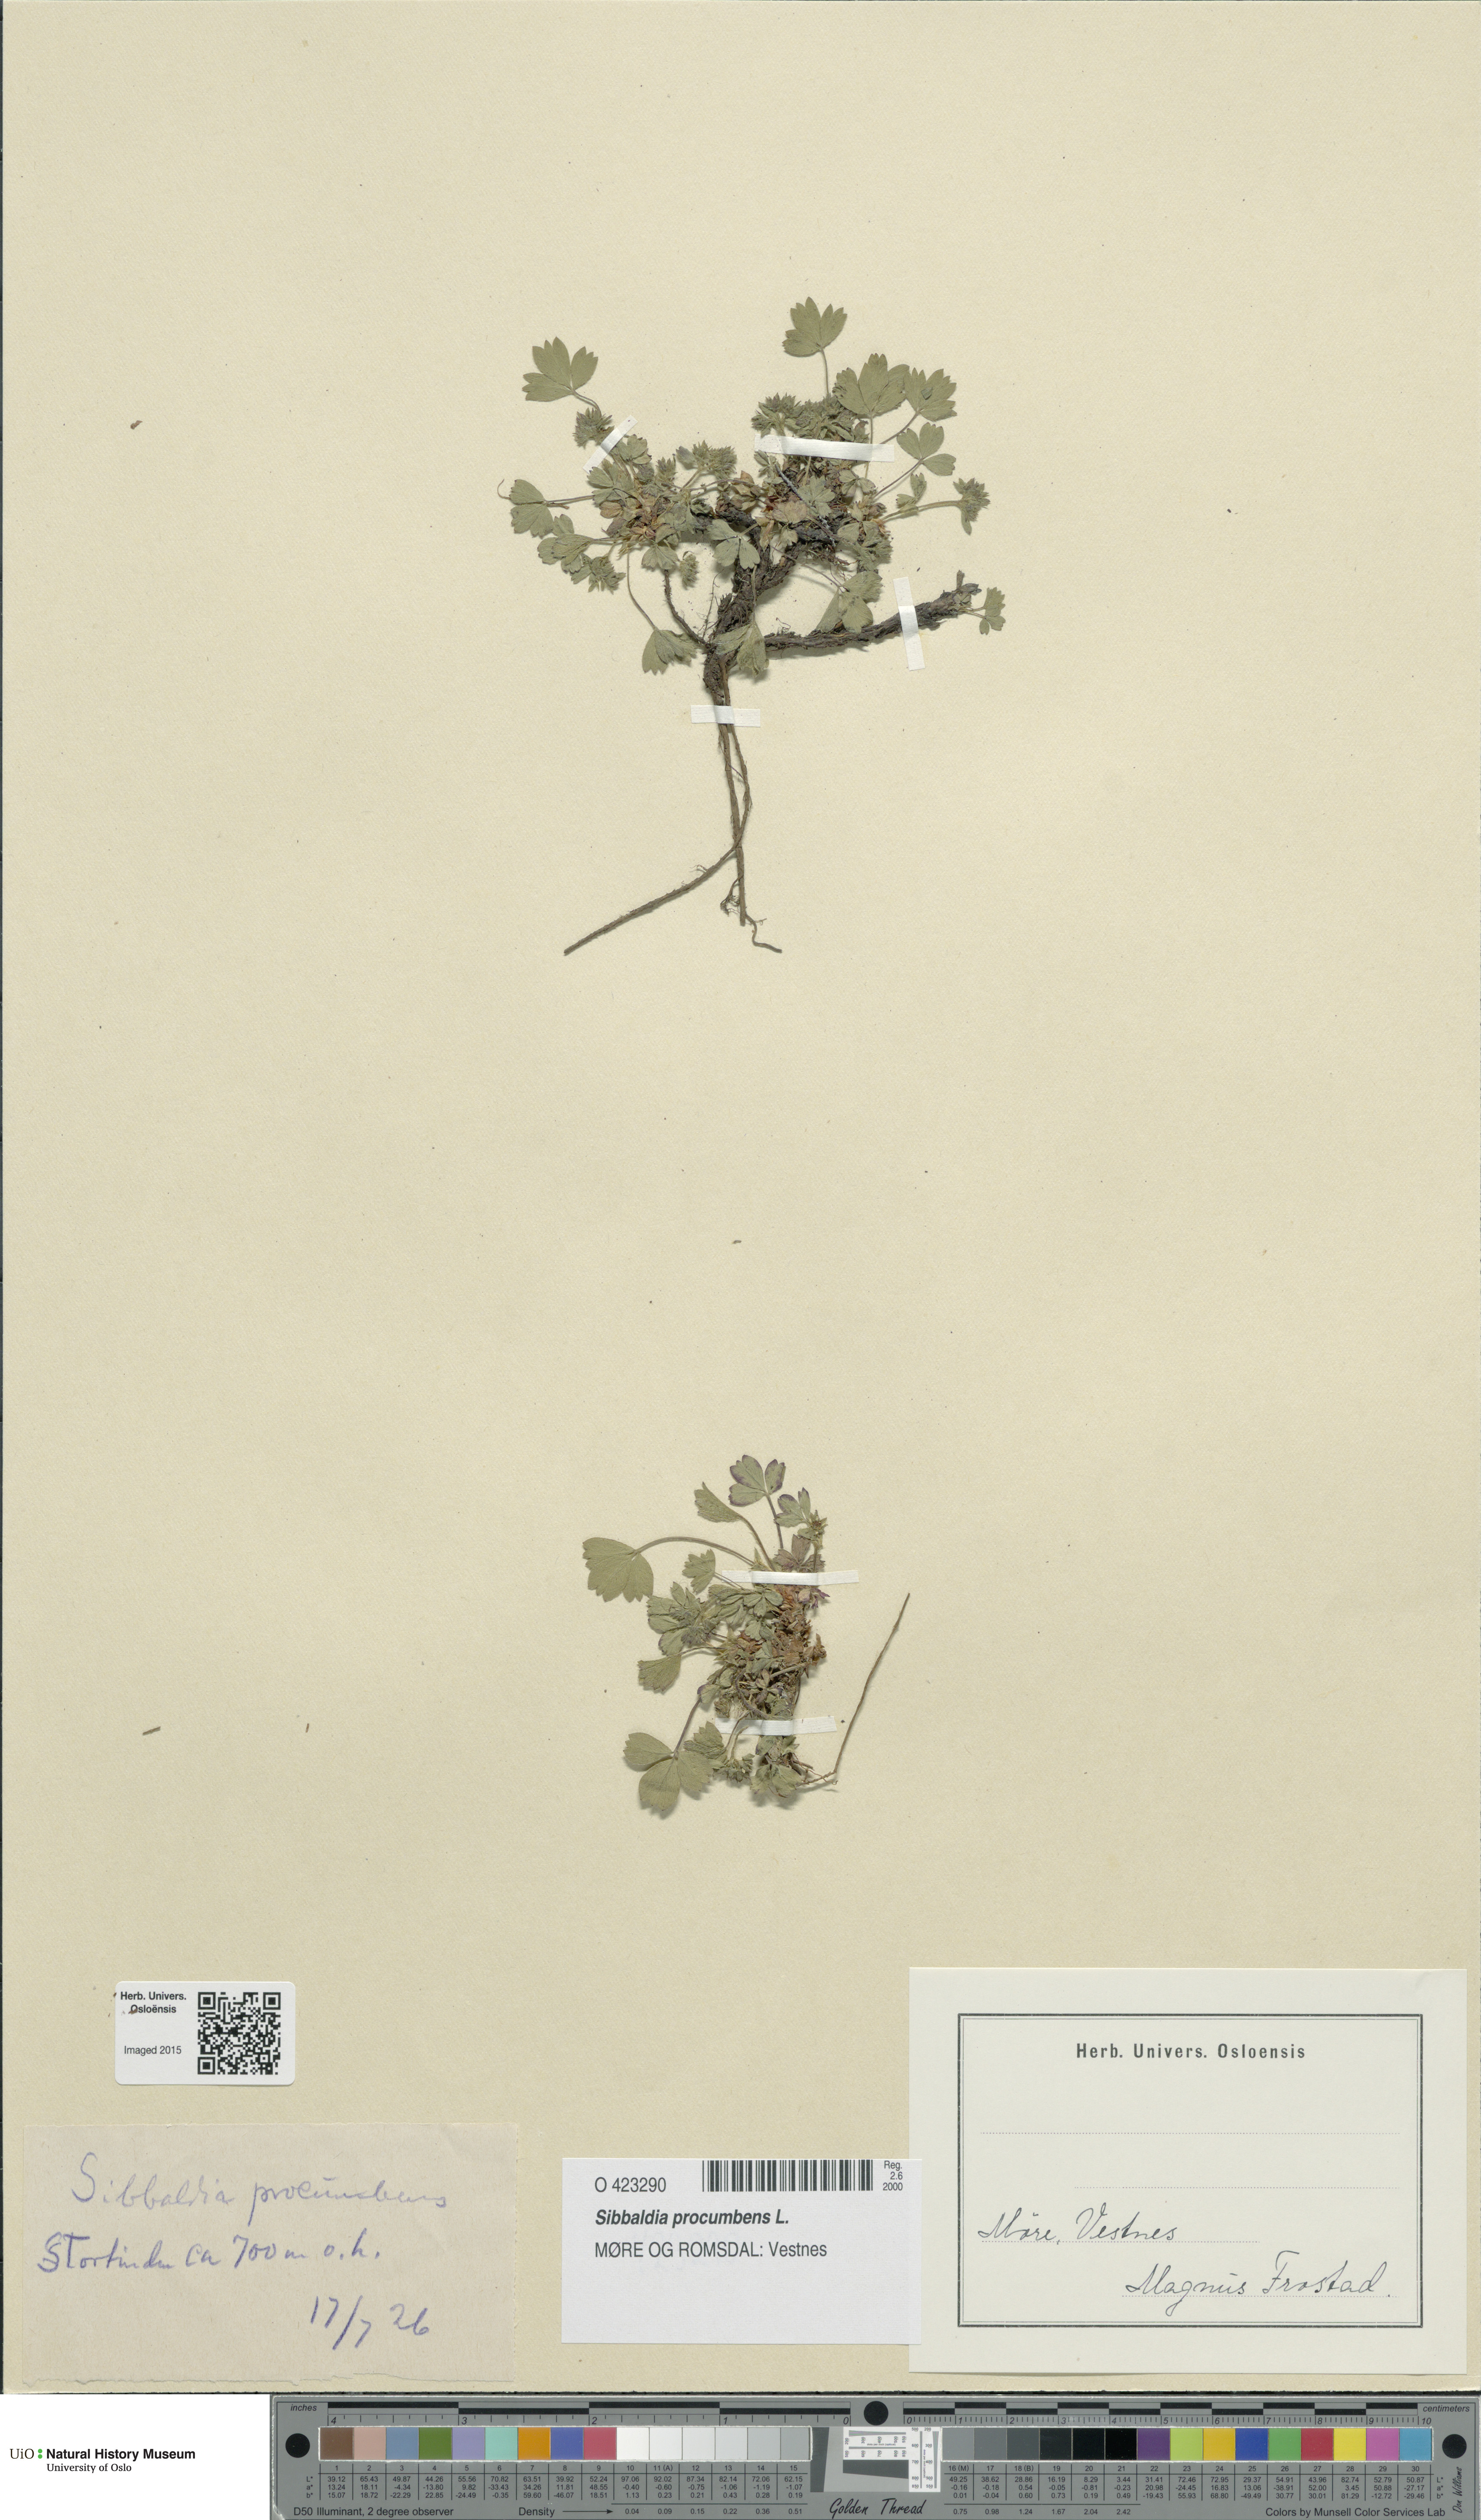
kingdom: Plantae
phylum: Tracheophyta
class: Magnoliopsida
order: Rosales
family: Rosaceae
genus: Sibbaldia
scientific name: Sibbaldia procumbens
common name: Creeping sibbaldia
